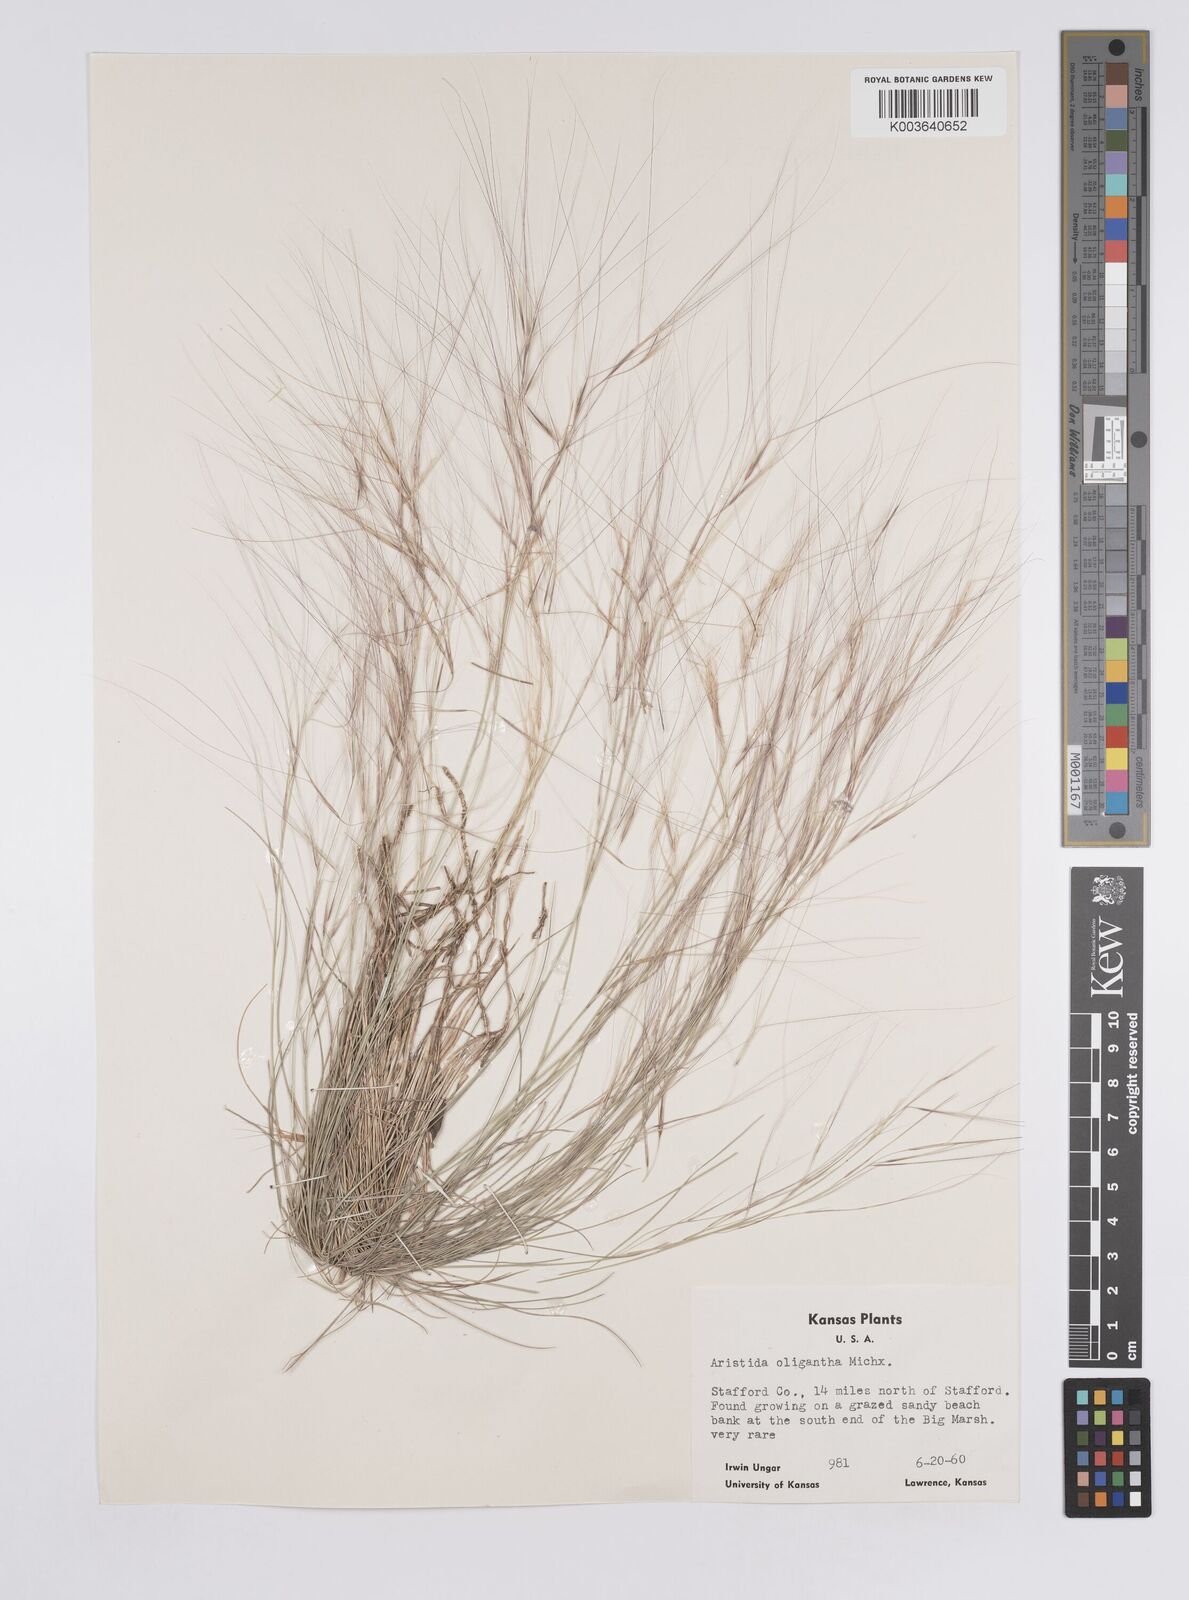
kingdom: Plantae
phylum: Tracheophyta
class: Liliopsida
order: Poales
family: Poaceae
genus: Aristida
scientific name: Aristida oligantha
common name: Few-flowered aristida
